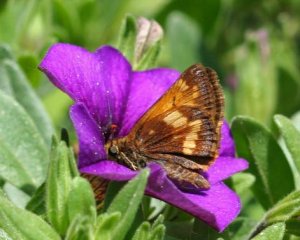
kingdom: Animalia
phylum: Arthropoda
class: Insecta
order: Lepidoptera
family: Hesperiidae
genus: Lon
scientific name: Lon hobomok
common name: Hobomok Skipper
